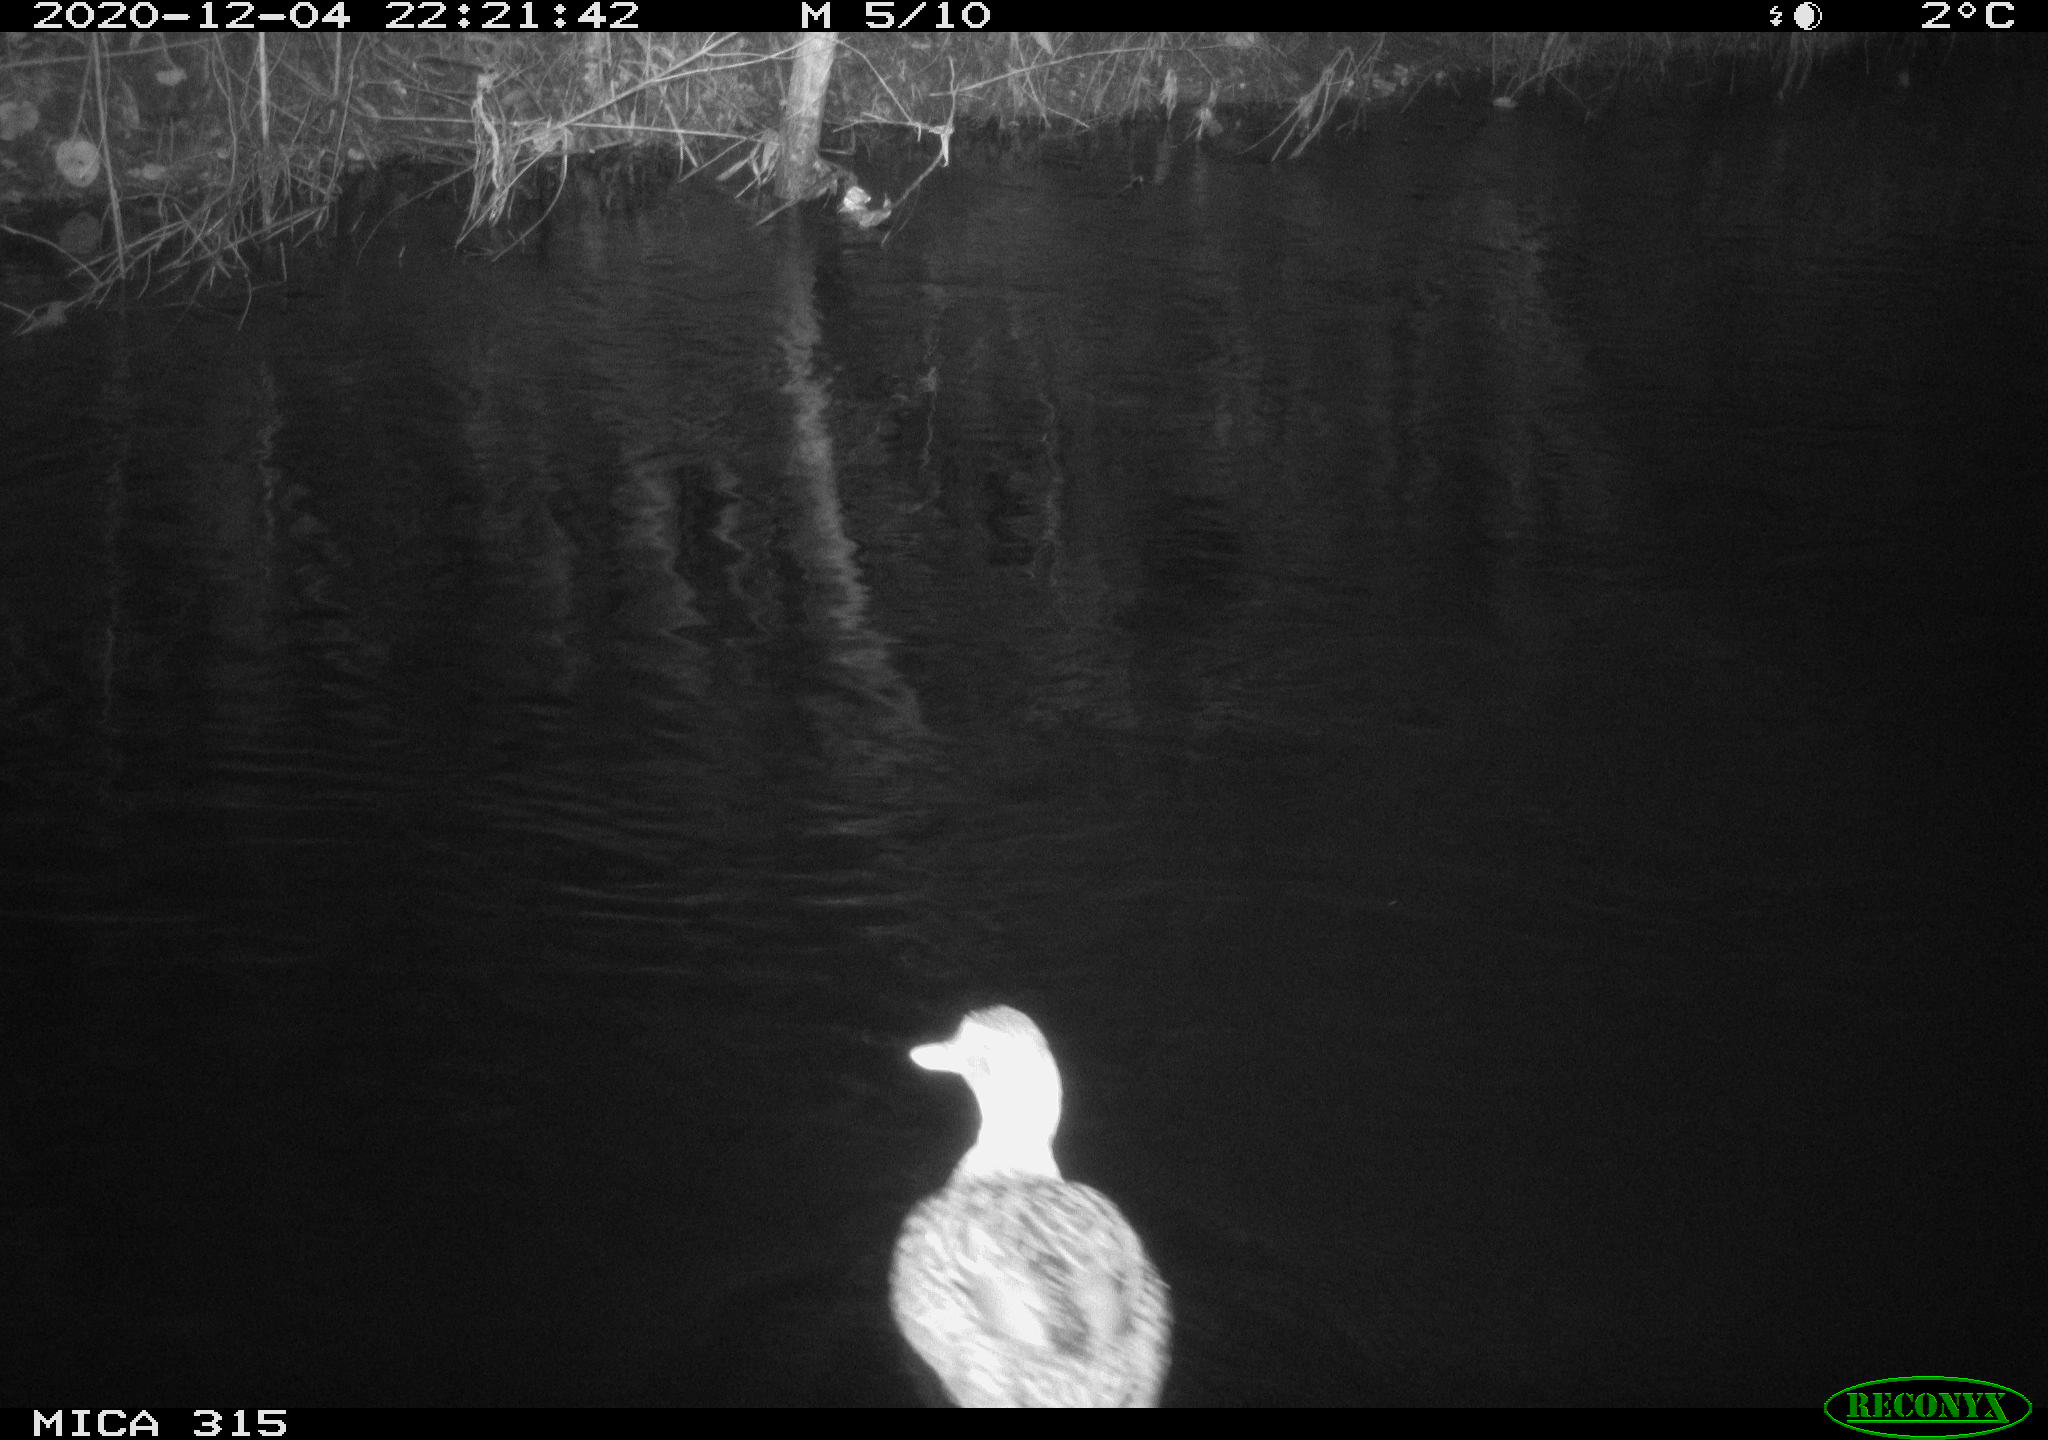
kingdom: Animalia
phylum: Chordata
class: Aves
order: Anseriformes
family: Anatidae
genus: Anas
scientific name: Anas platyrhynchos
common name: Mallard
